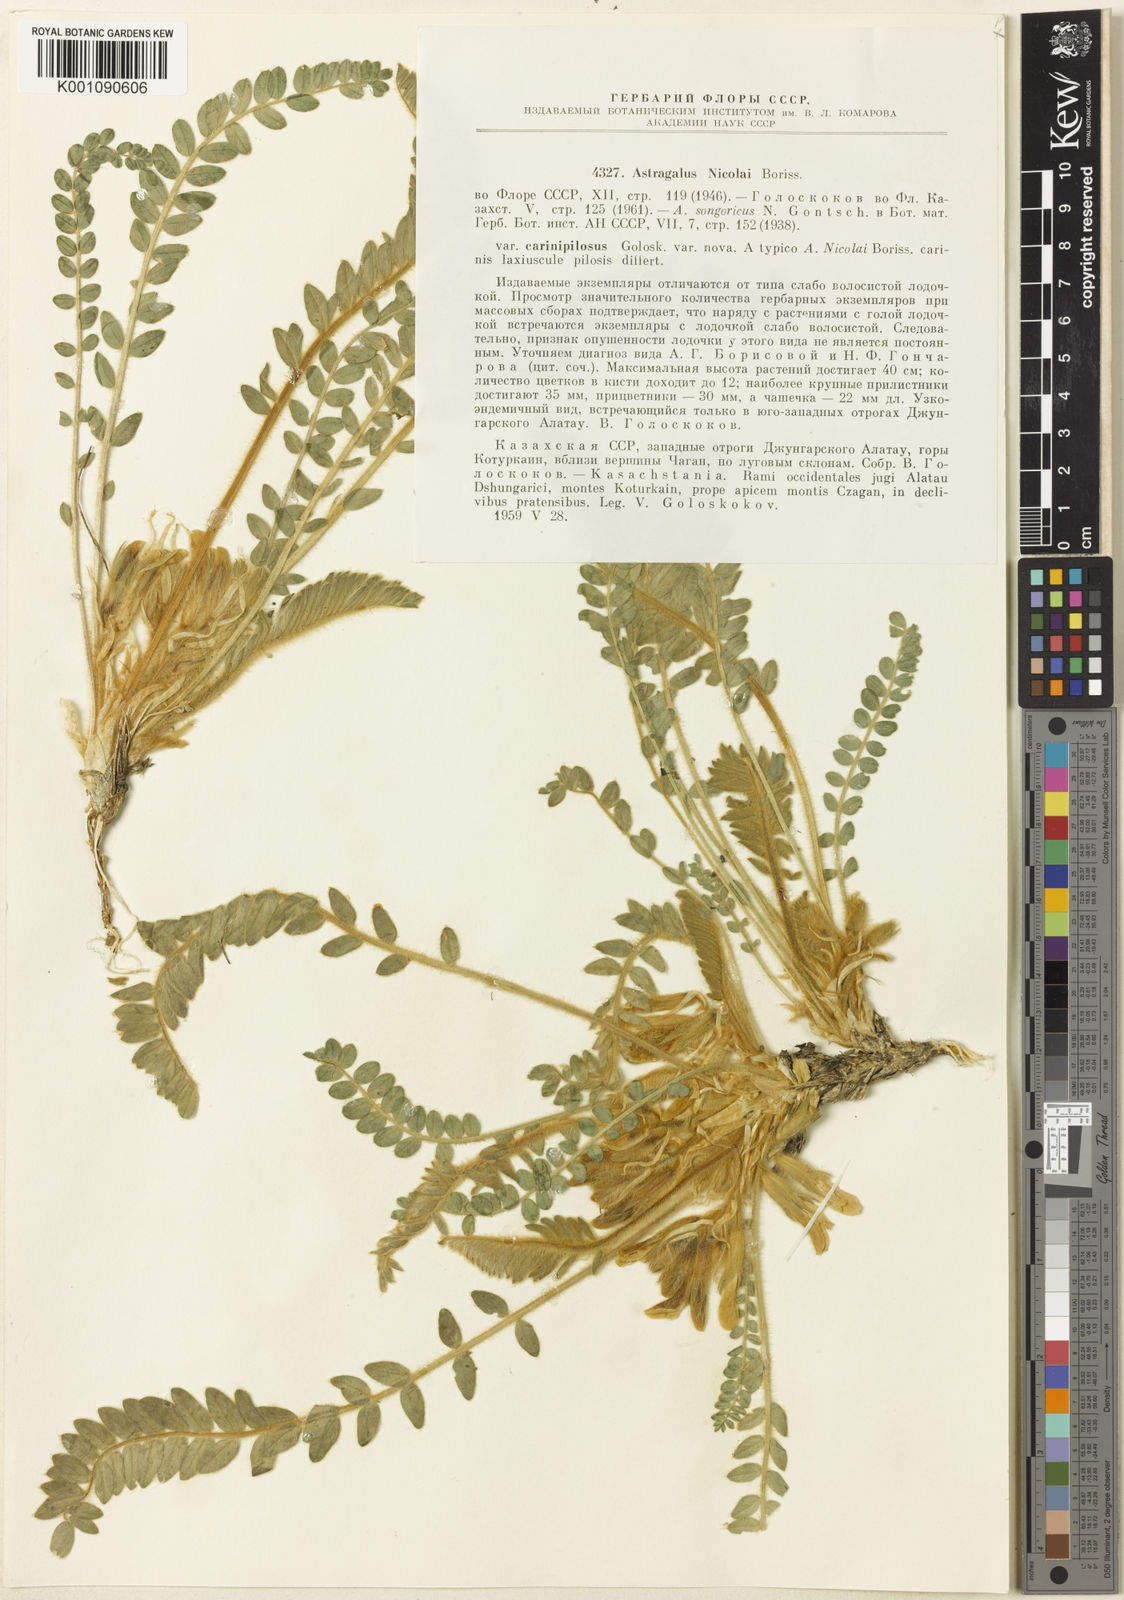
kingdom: Plantae
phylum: Tracheophyta
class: Magnoliopsida
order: Fabales
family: Fabaceae
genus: Astragalus
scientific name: Astragalus nicolaii
